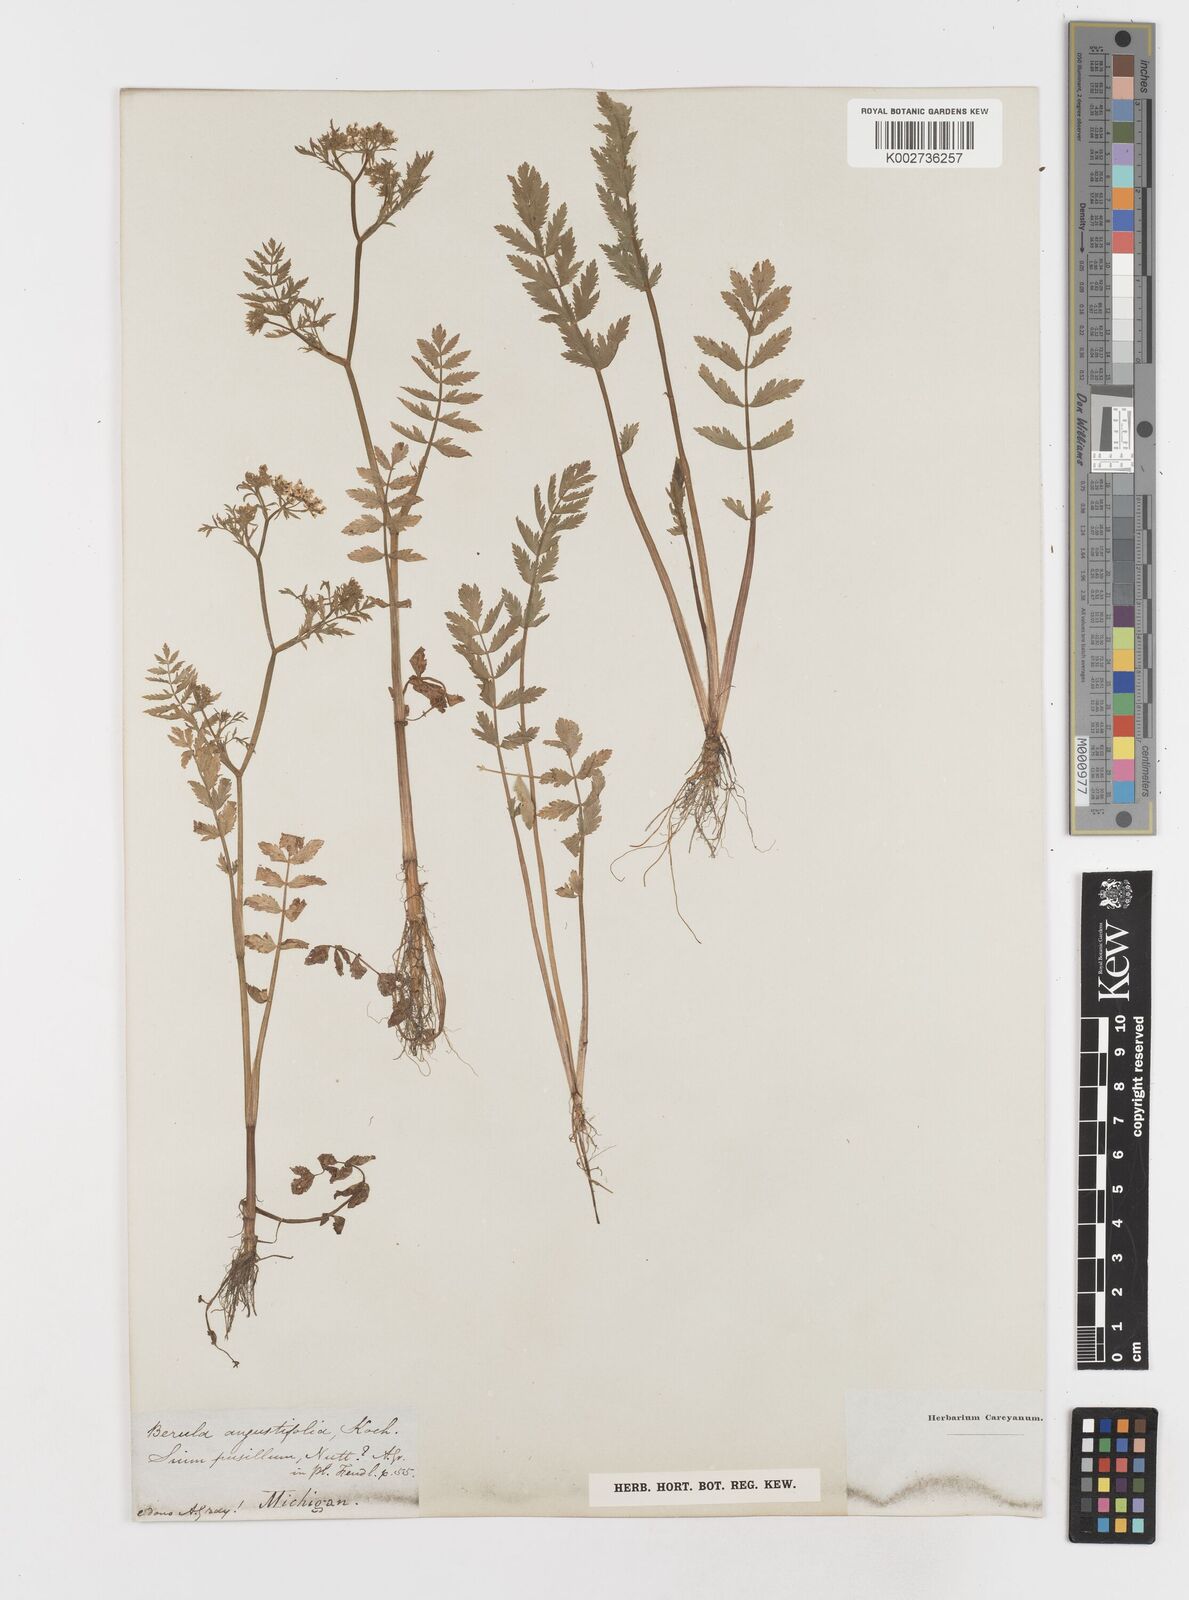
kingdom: Plantae
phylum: Tracheophyta
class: Magnoliopsida
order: Apiales
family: Apiaceae
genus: Berula
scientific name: Berula erecta
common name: Lesser water-parsnip
